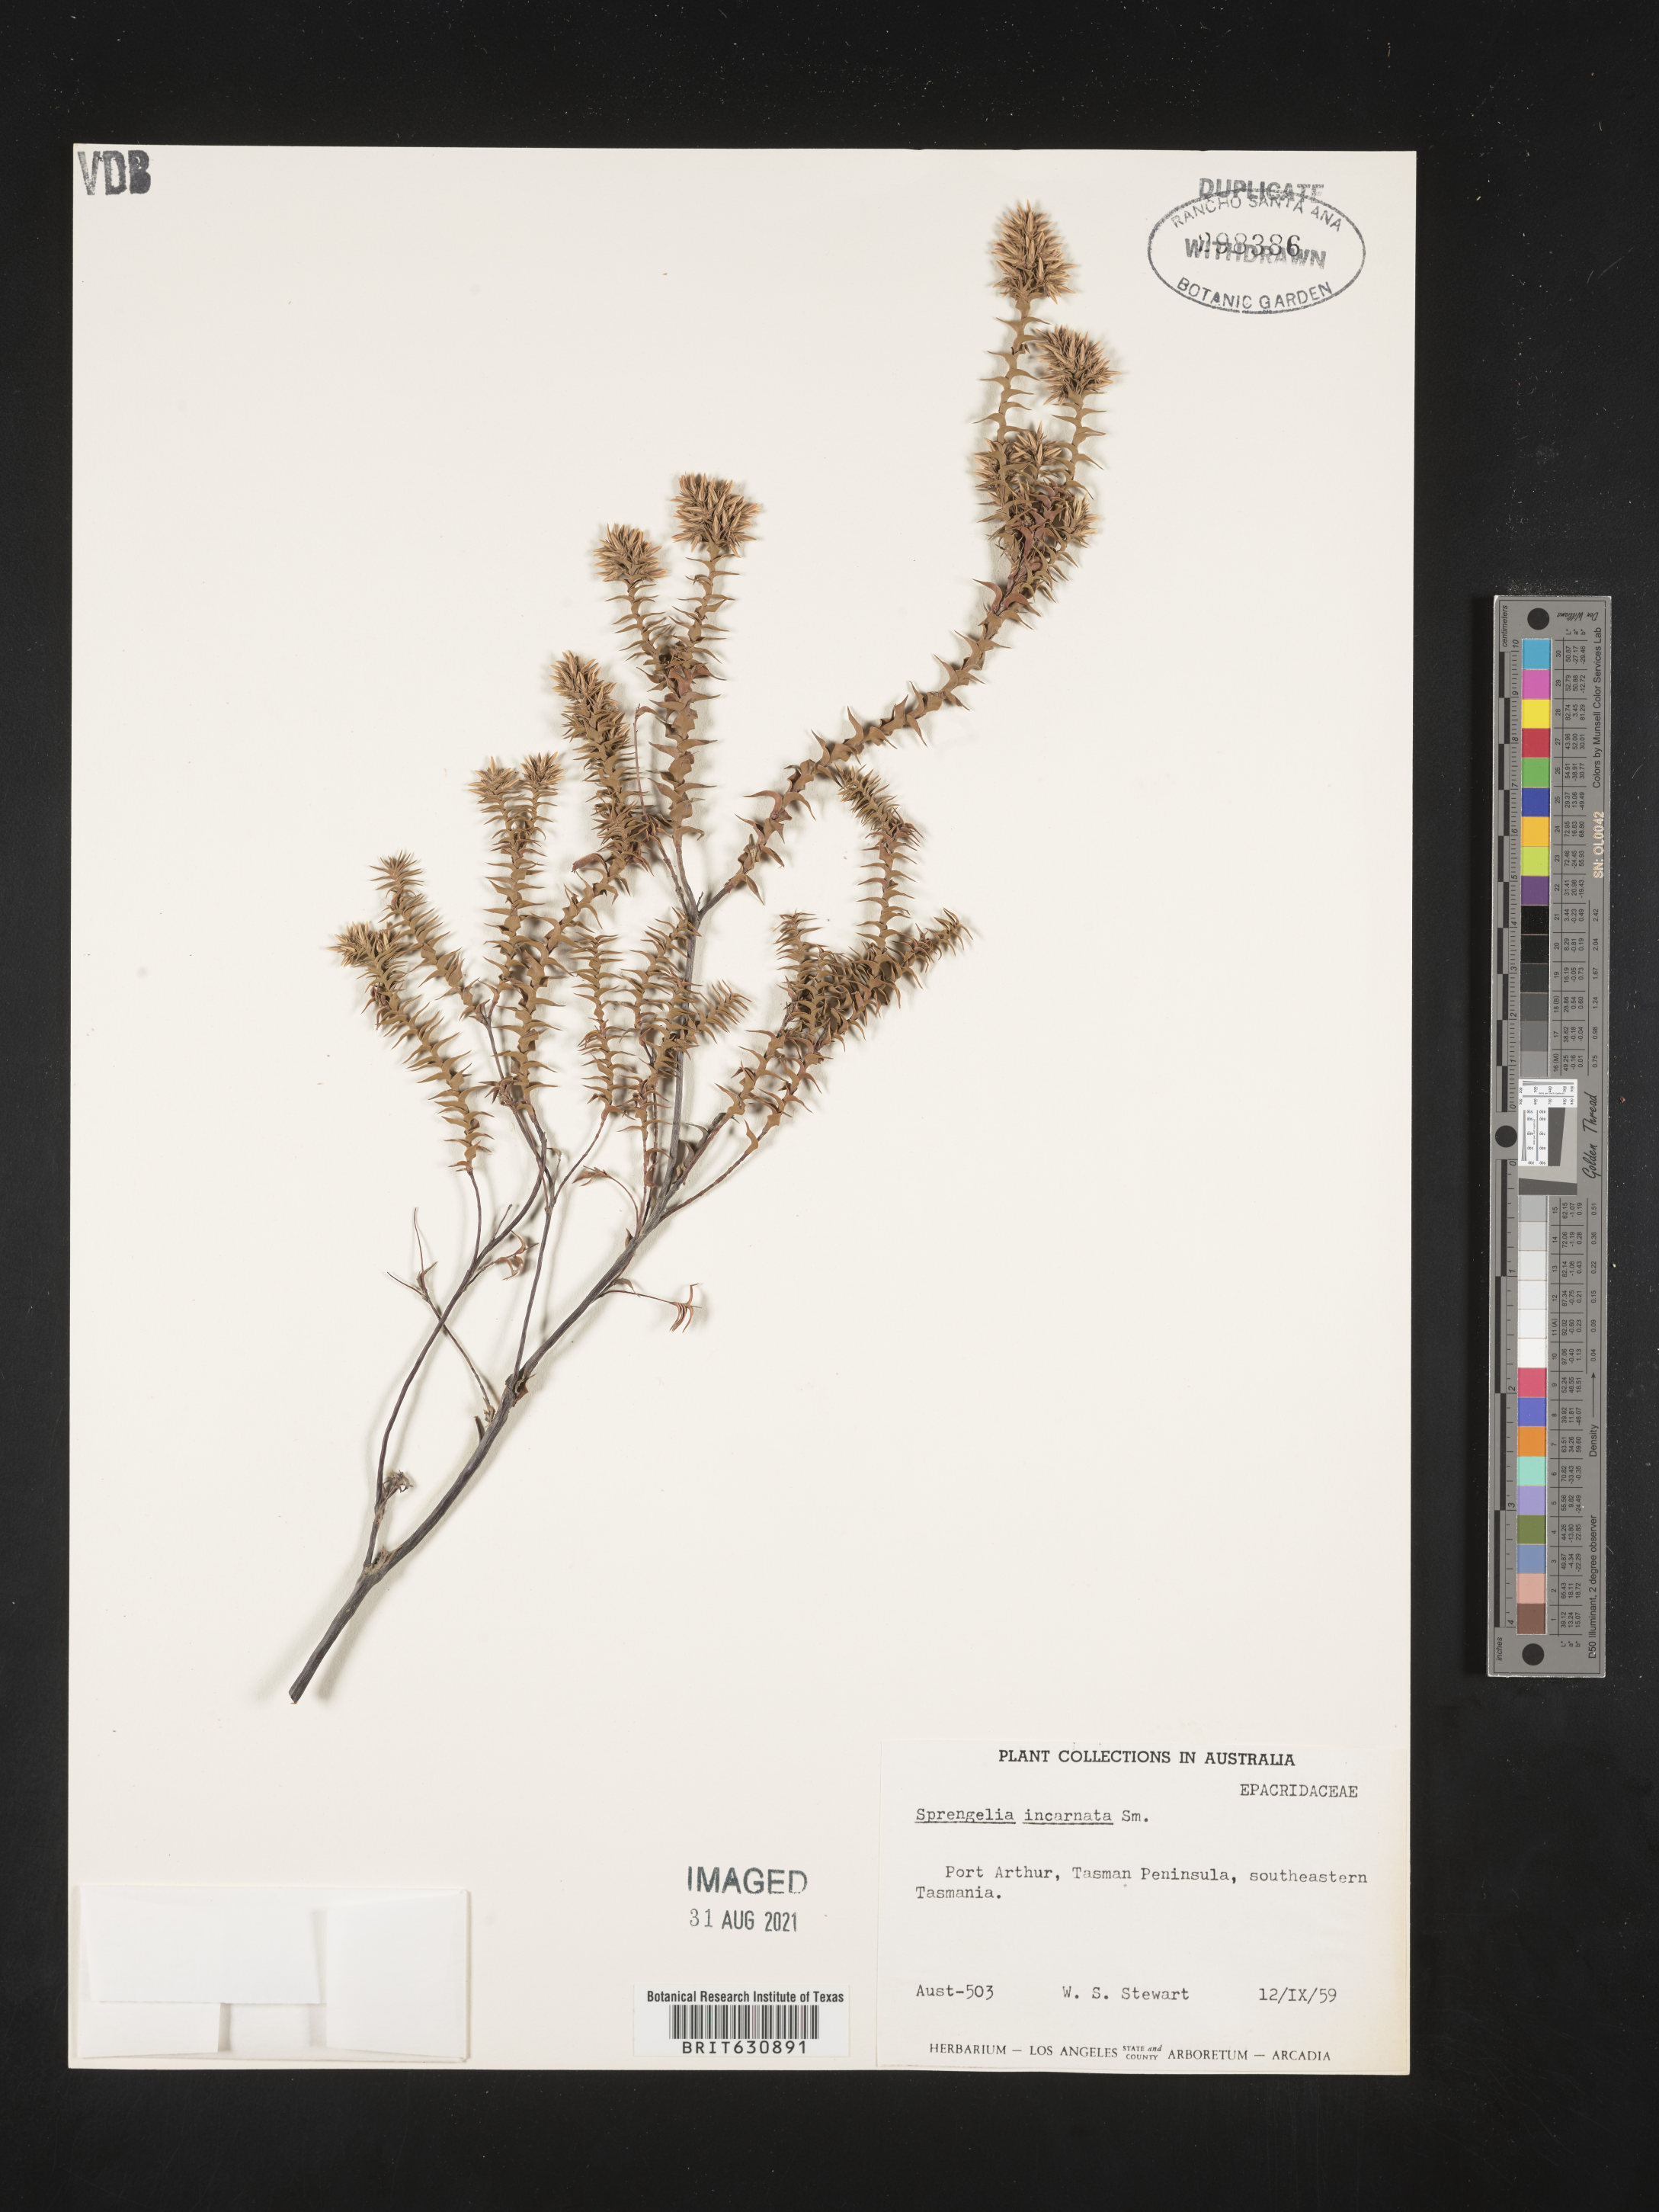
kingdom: Plantae
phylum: Tracheophyta
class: Magnoliopsida
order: Ericales
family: Ericaceae
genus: Sprengelia
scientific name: Sprengelia
